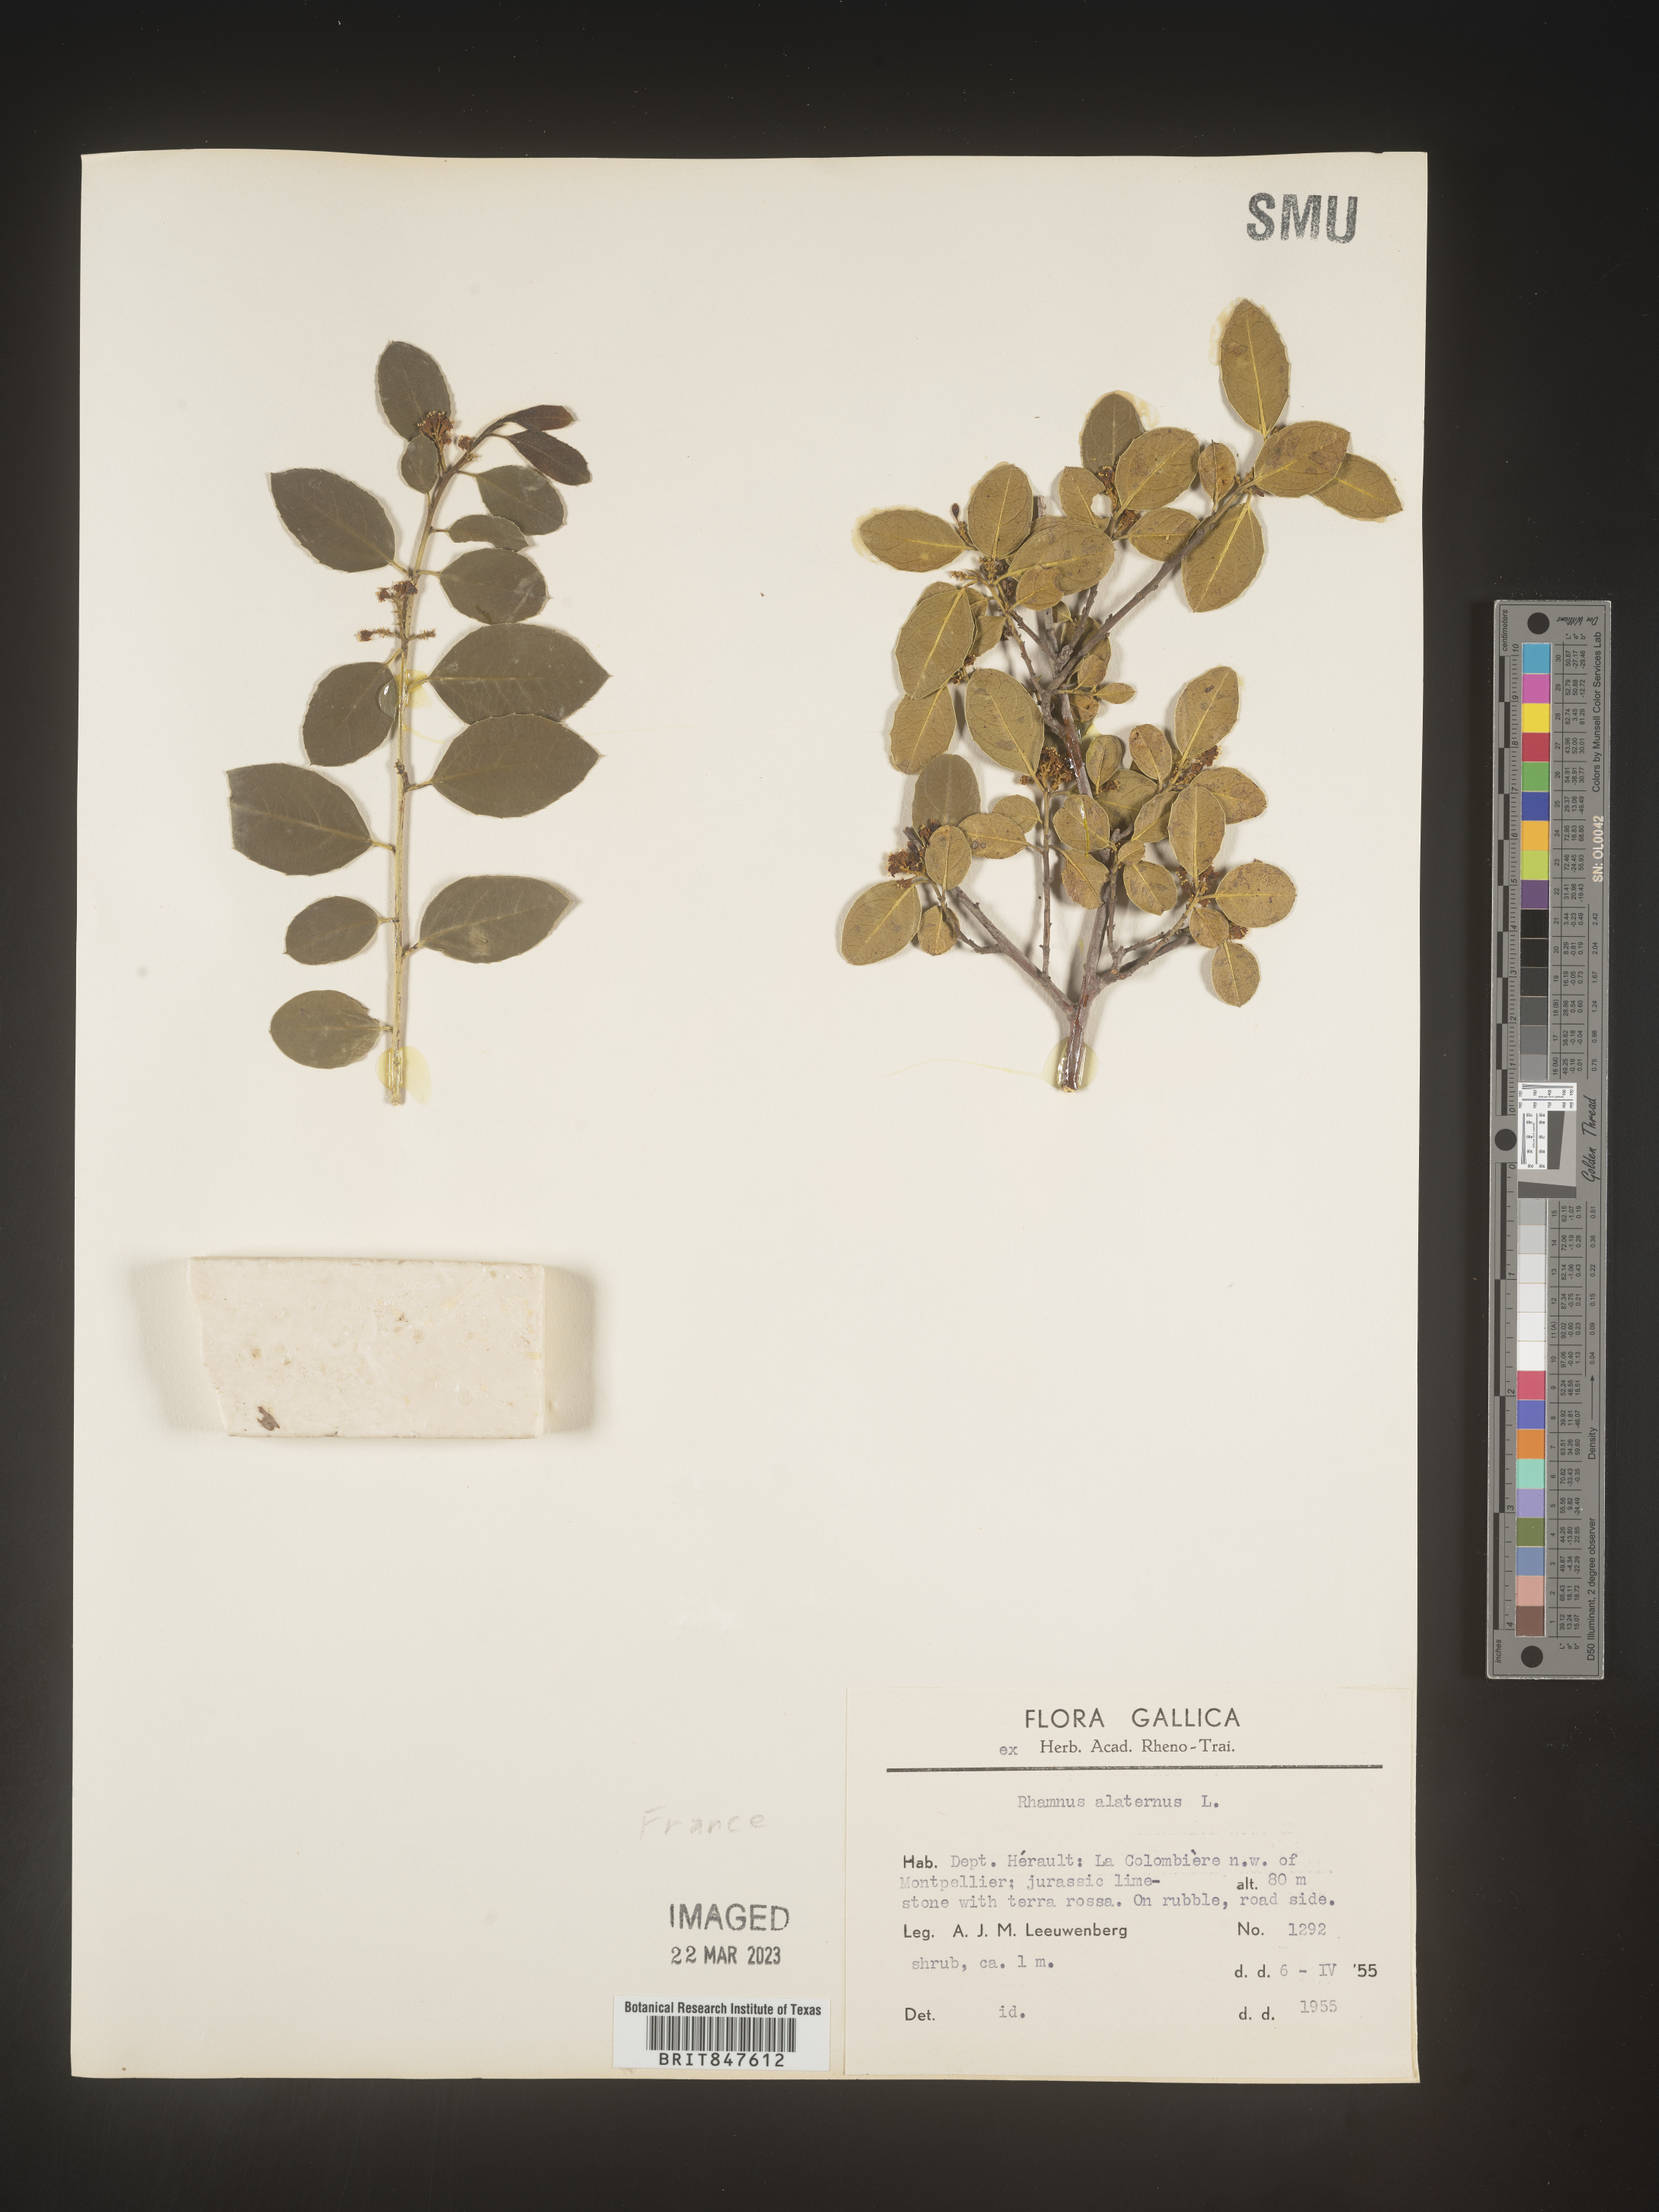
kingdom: Plantae
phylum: Tracheophyta
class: Magnoliopsida
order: Rosales
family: Rhamnaceae
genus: Rhamnus
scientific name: Rhamnus
